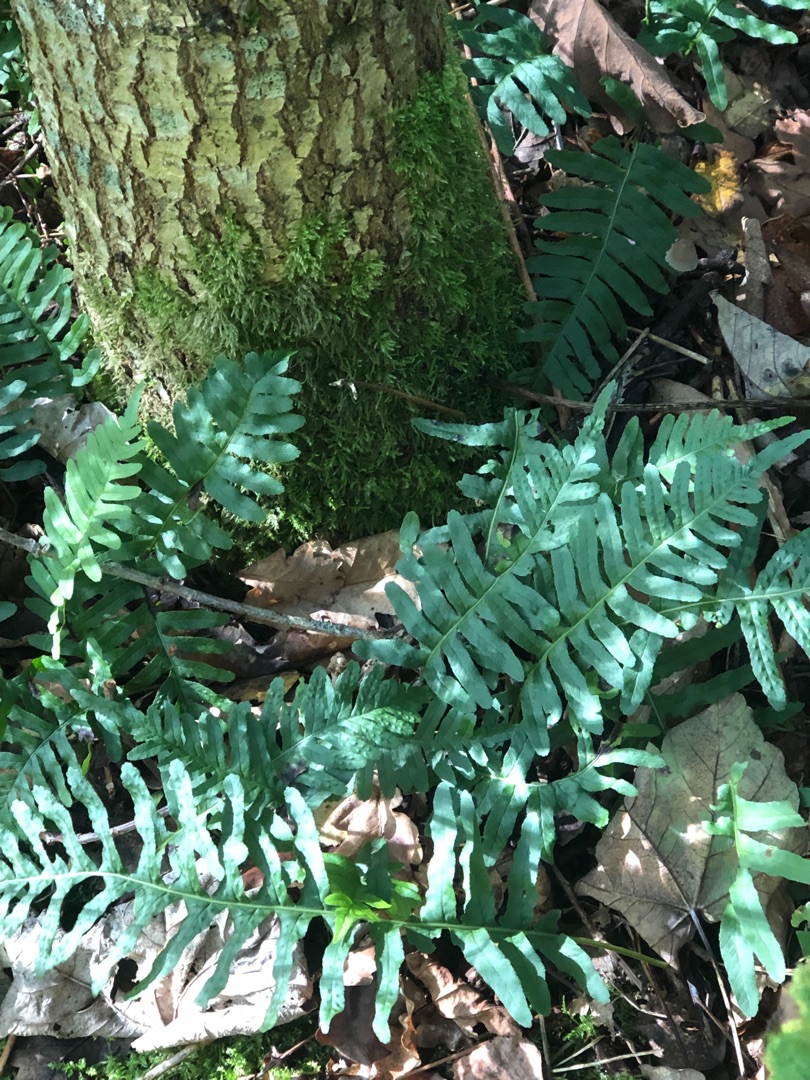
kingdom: Plantae
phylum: Tracheophyta
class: Polypodiopsida
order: Polypodiales
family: Polypodiaceae
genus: Polypodium
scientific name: Polypodium vulgare
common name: Almindelig engelsød
